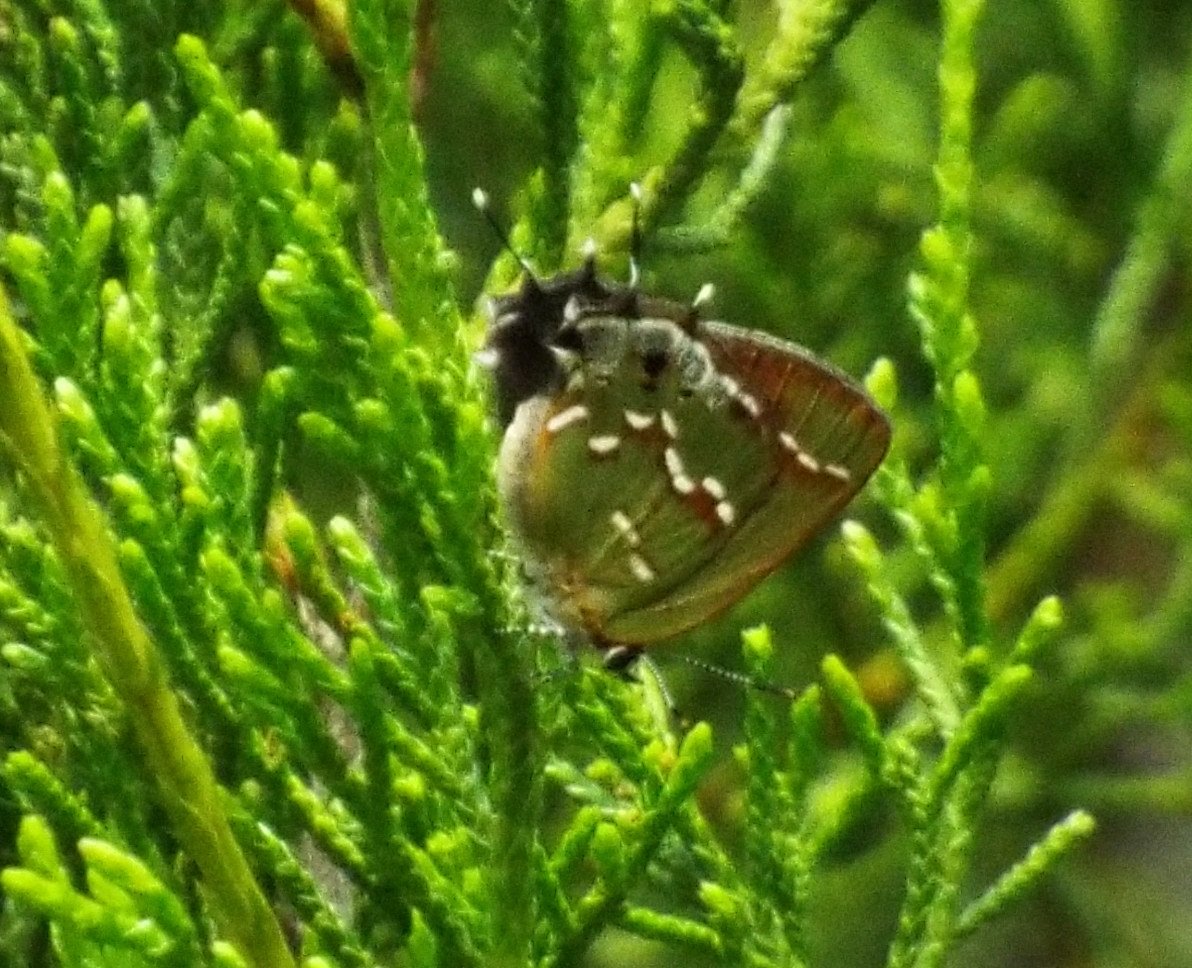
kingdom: Animalia
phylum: Arthropoda
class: Insecta
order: Lepidoptera
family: Lycaenidae
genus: Mitoura
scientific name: Mitoura gryneus
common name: Juniper Hairstreak
